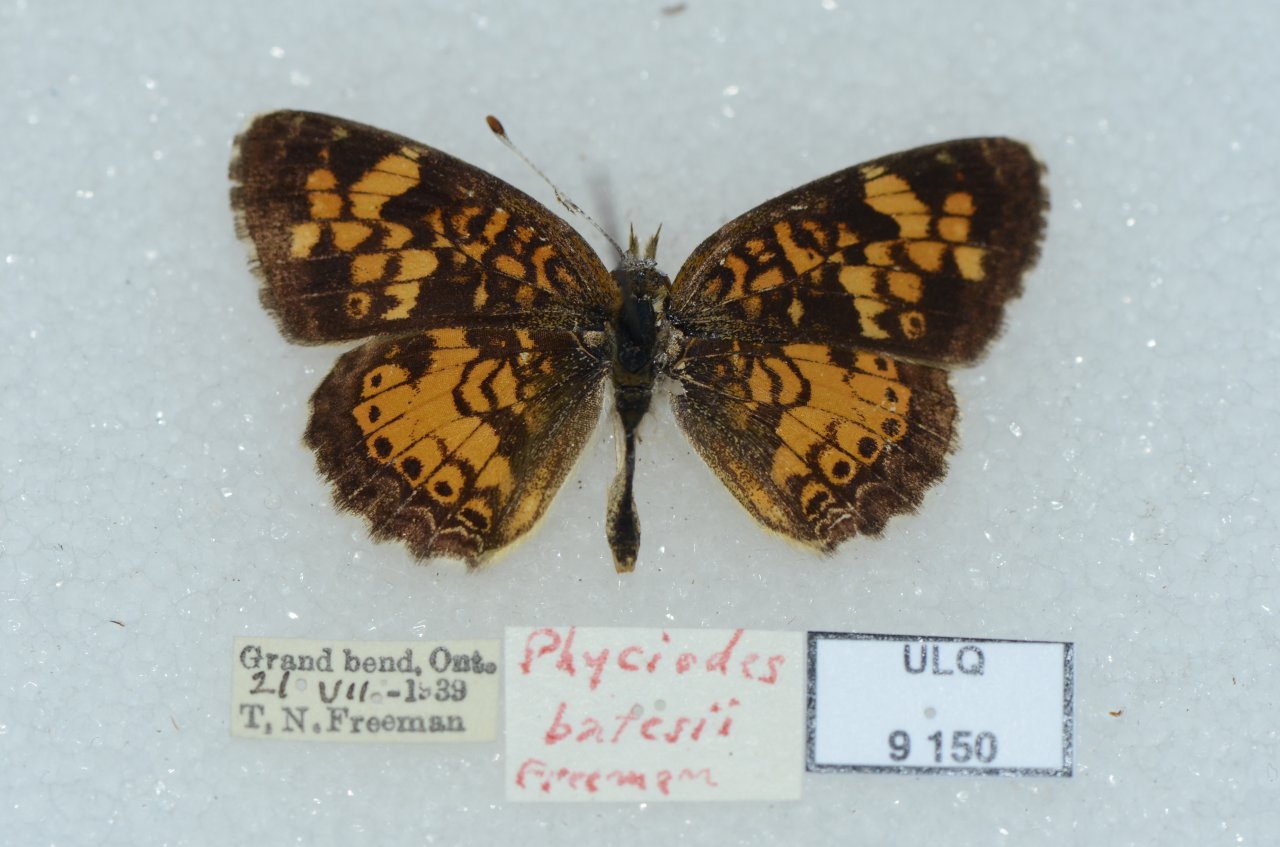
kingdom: Animalia
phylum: Arthropoda
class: Insecta
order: Lepidoptera
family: Nymphalidae
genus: Phyciodes
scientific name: Phyciodes batesii
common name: Tawny Crescent
